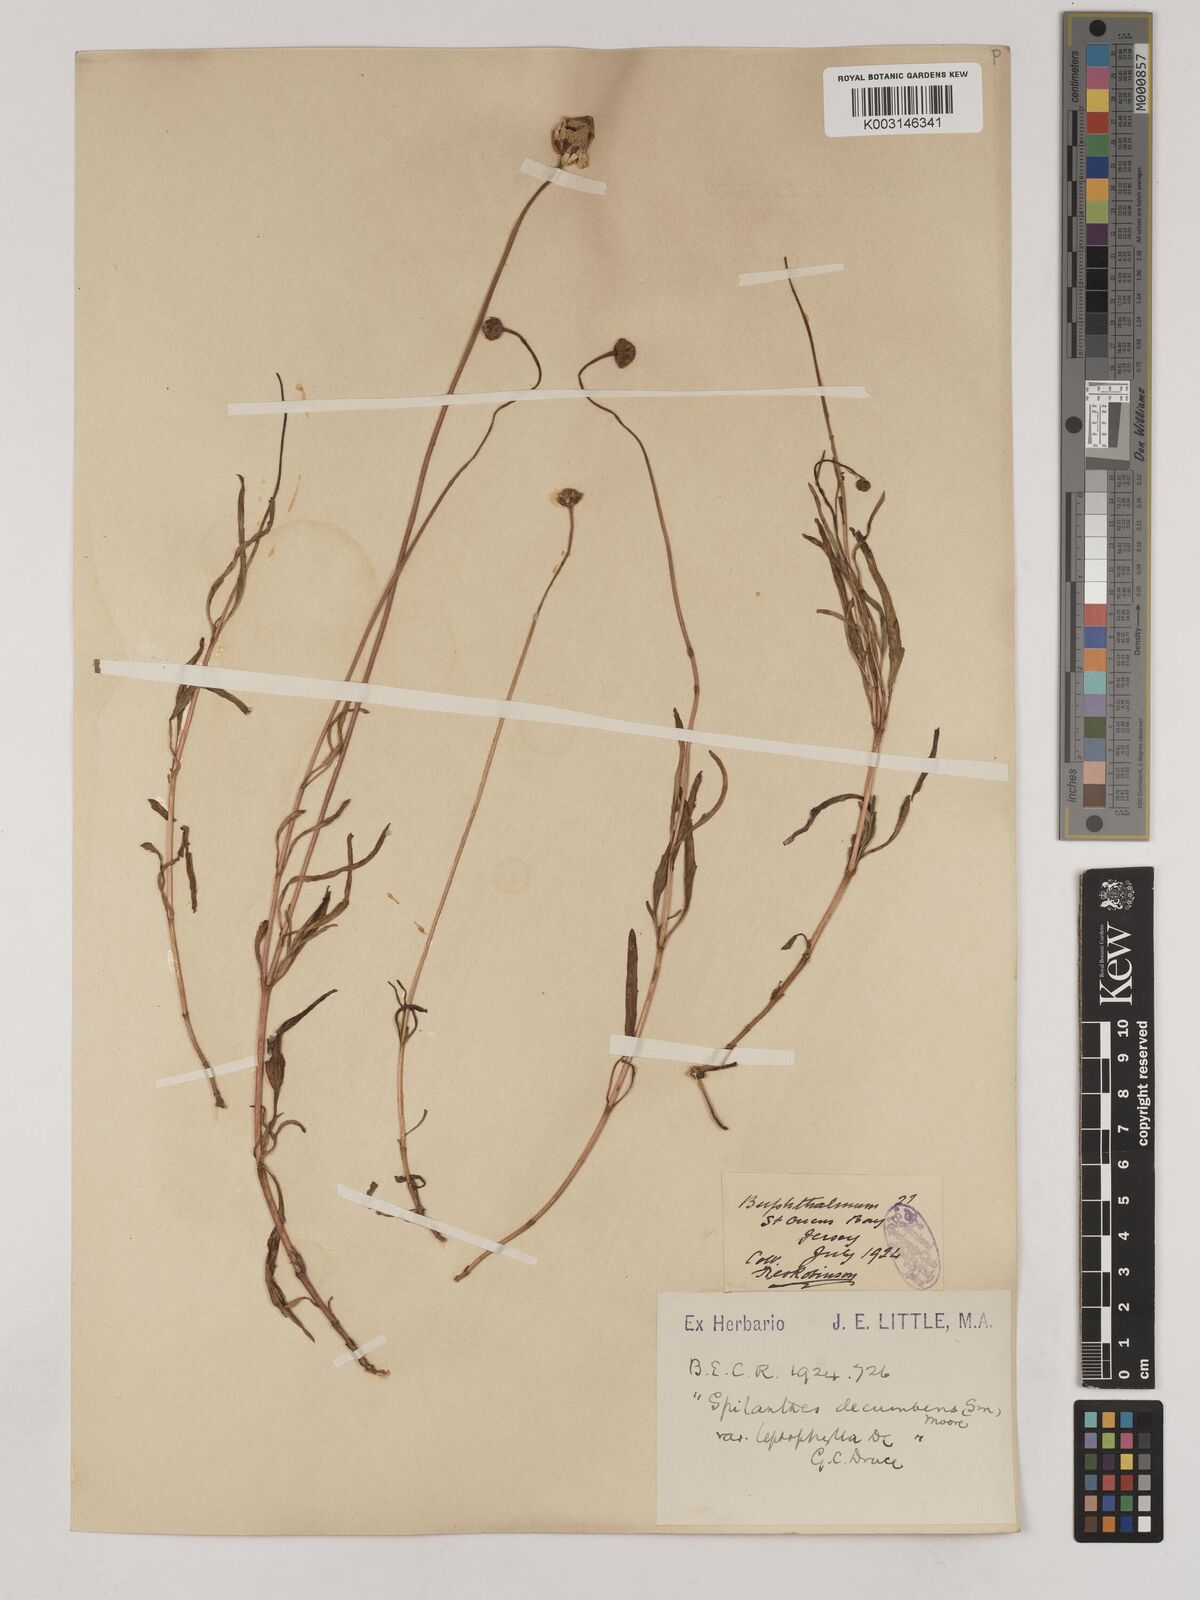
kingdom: Plantae
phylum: Tracheophyta
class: Magnoliopsida
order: Asterales
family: Asteraceae
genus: Acmella
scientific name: Acmella leptophylla
